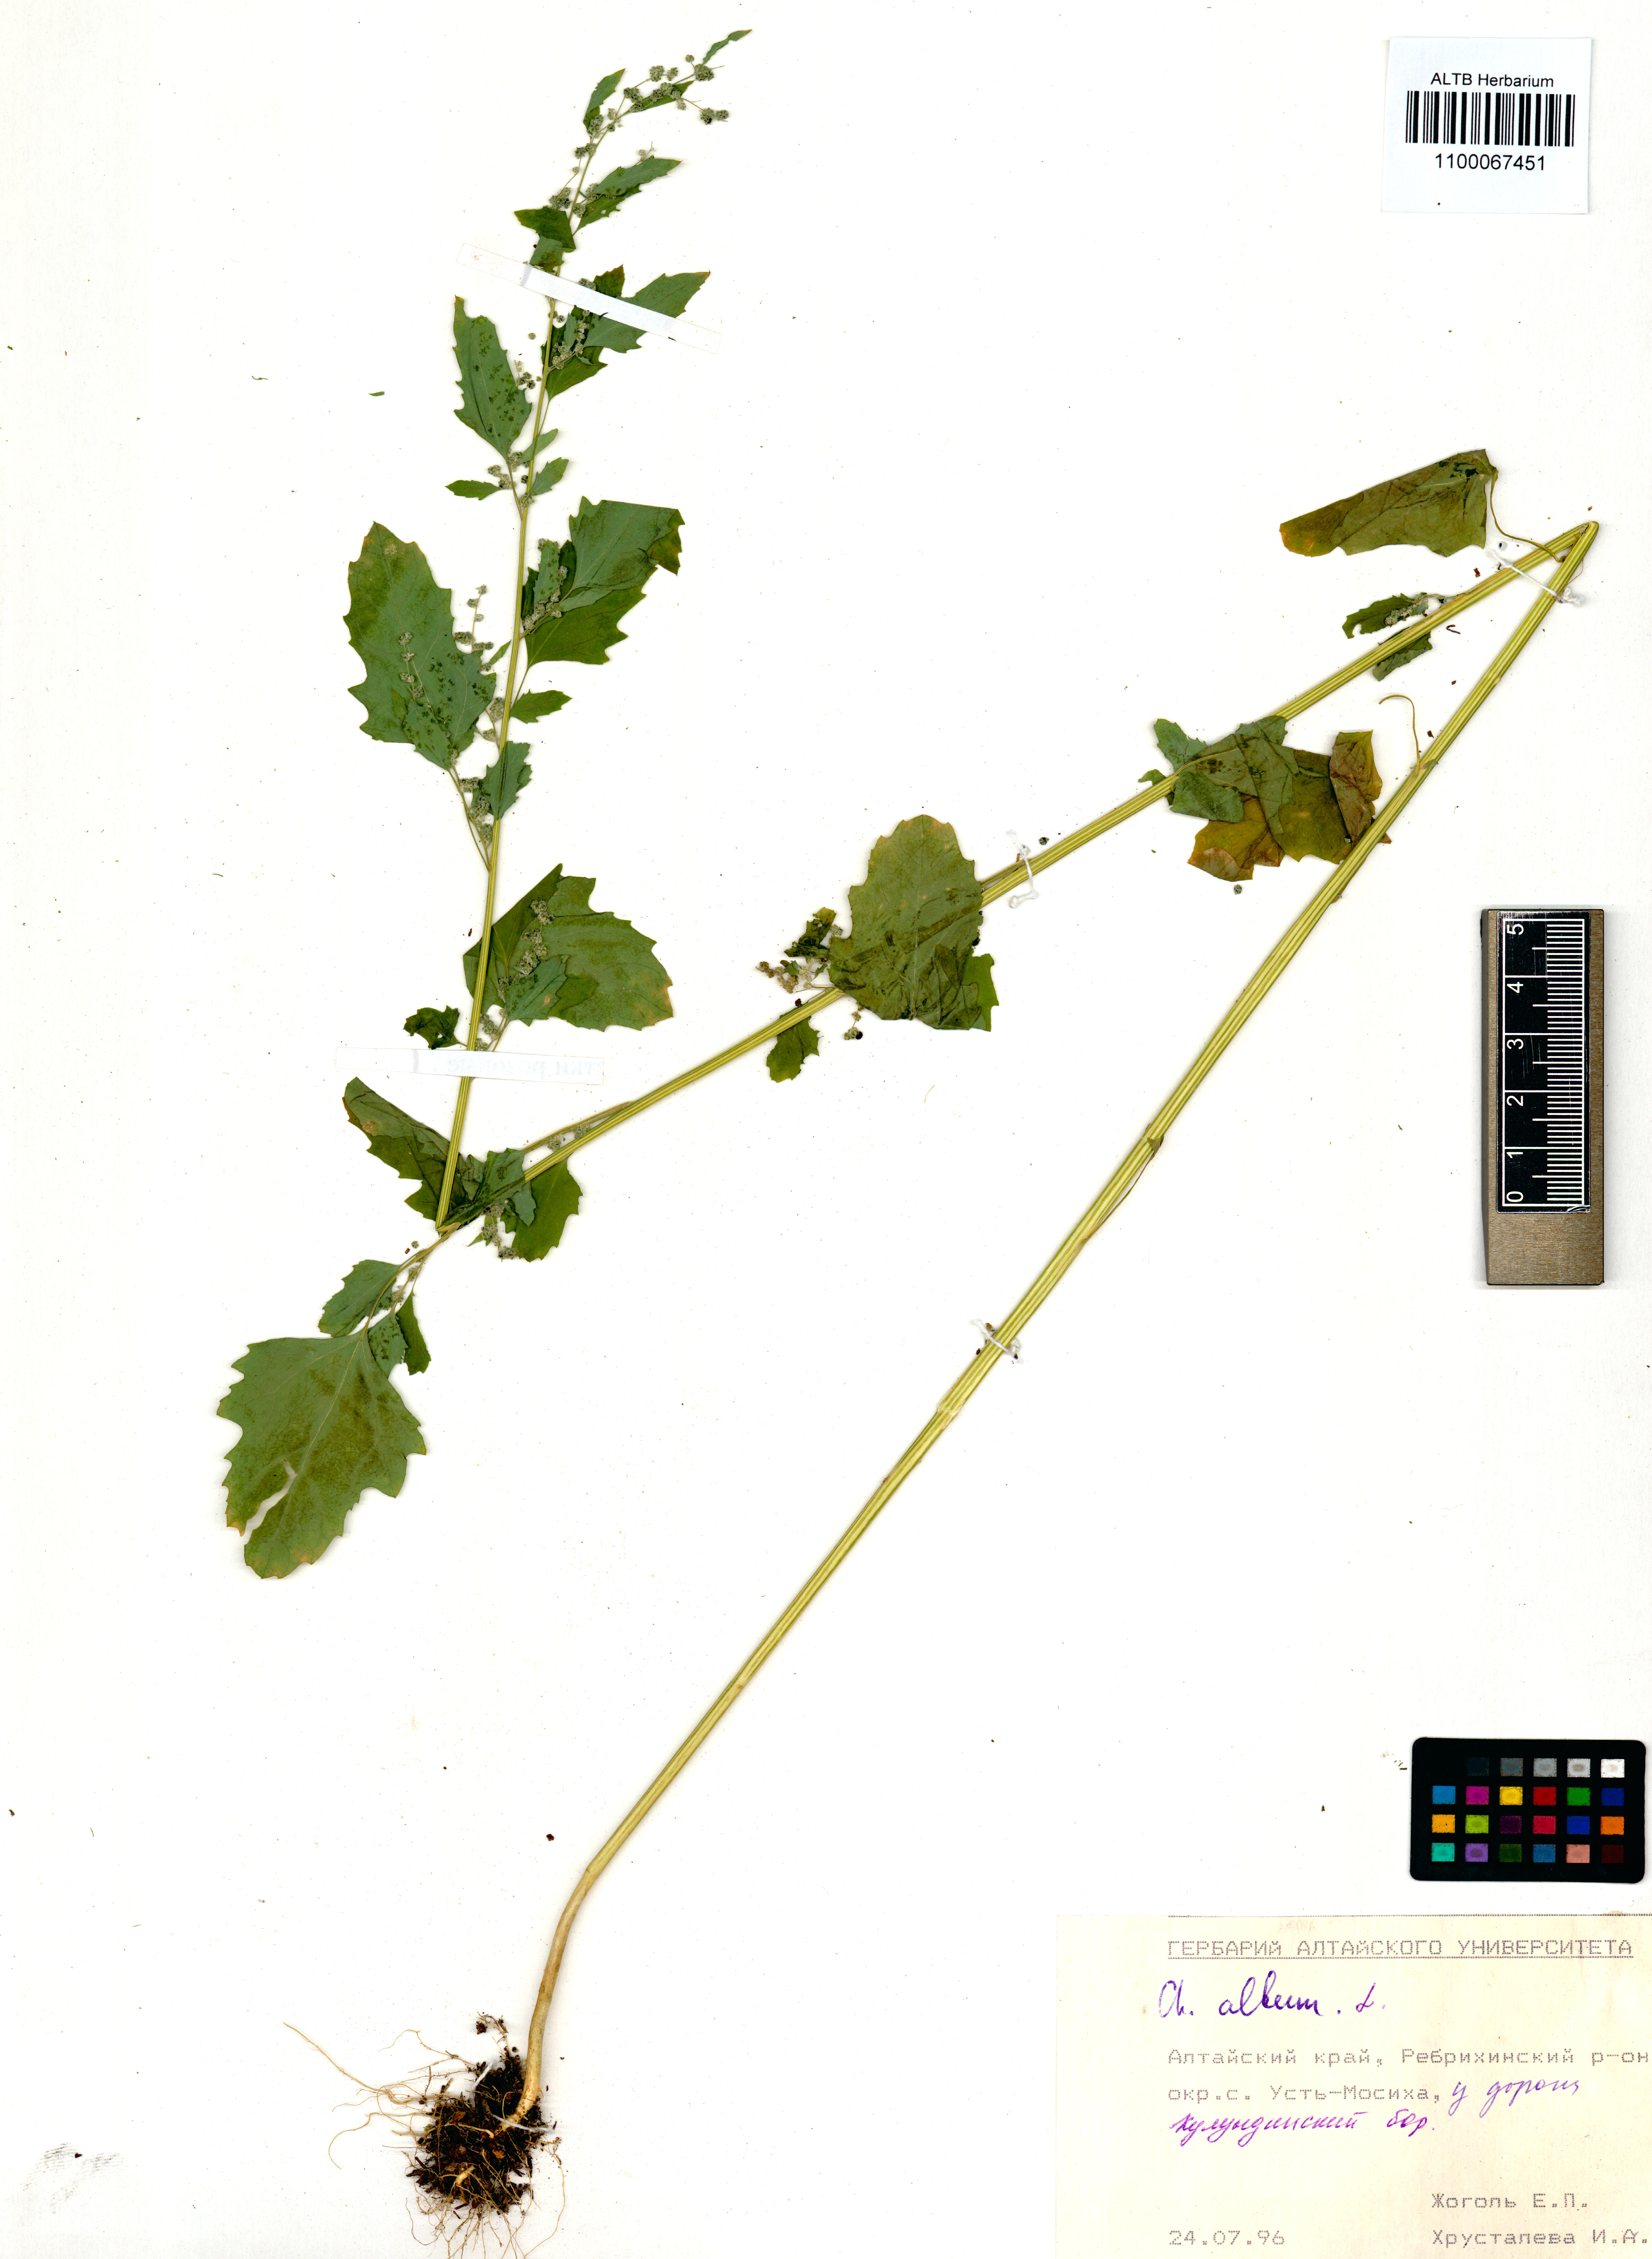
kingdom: Plantae
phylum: Tracheophyta
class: Magnoliopsida
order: Caryophyllales
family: Amaranthaceae
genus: Chenopodium
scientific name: Chenopodium album
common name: Fat-hen
